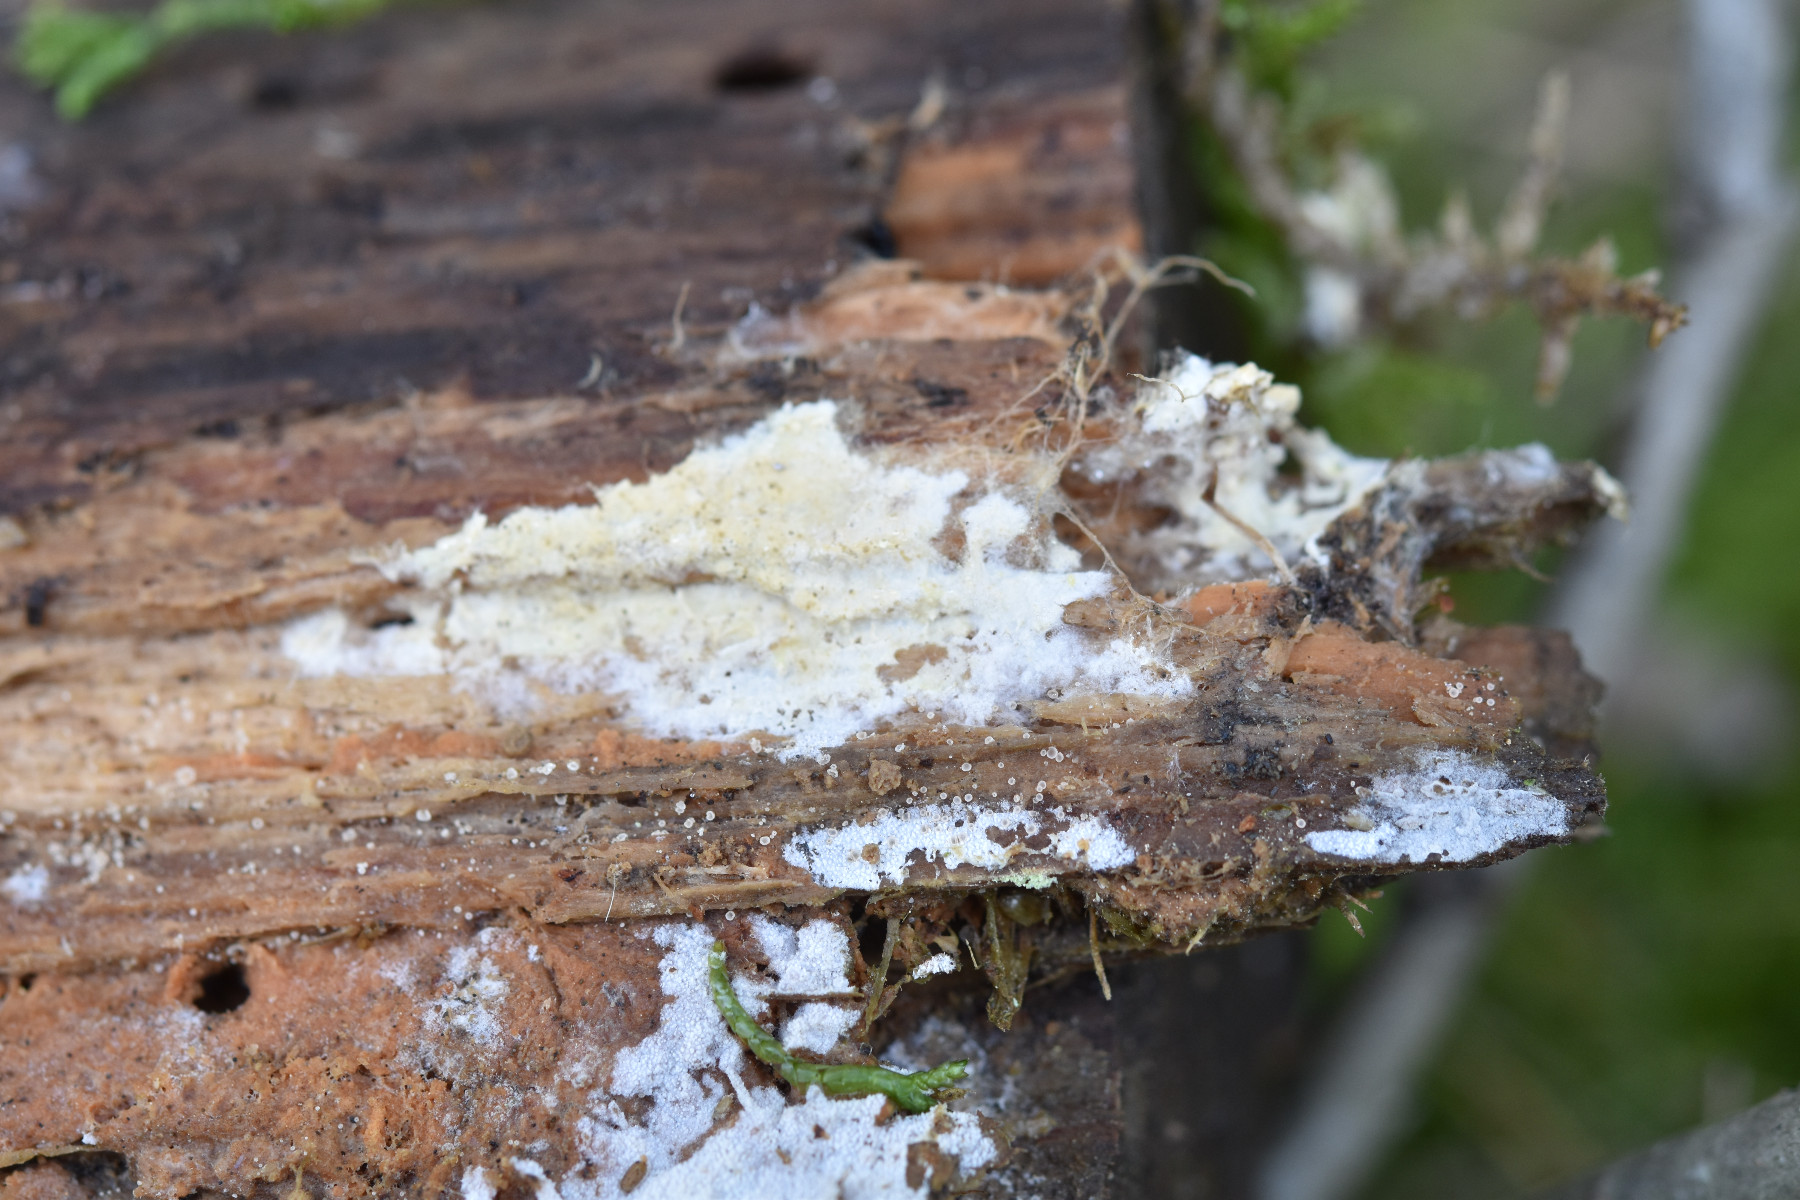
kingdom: Fungi
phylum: Basidiomycota
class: Agaricomycetes
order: Atheliales
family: Atheliaceae
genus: Amphinema
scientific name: Amphinema byssoides
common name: almindelig rodhinde
